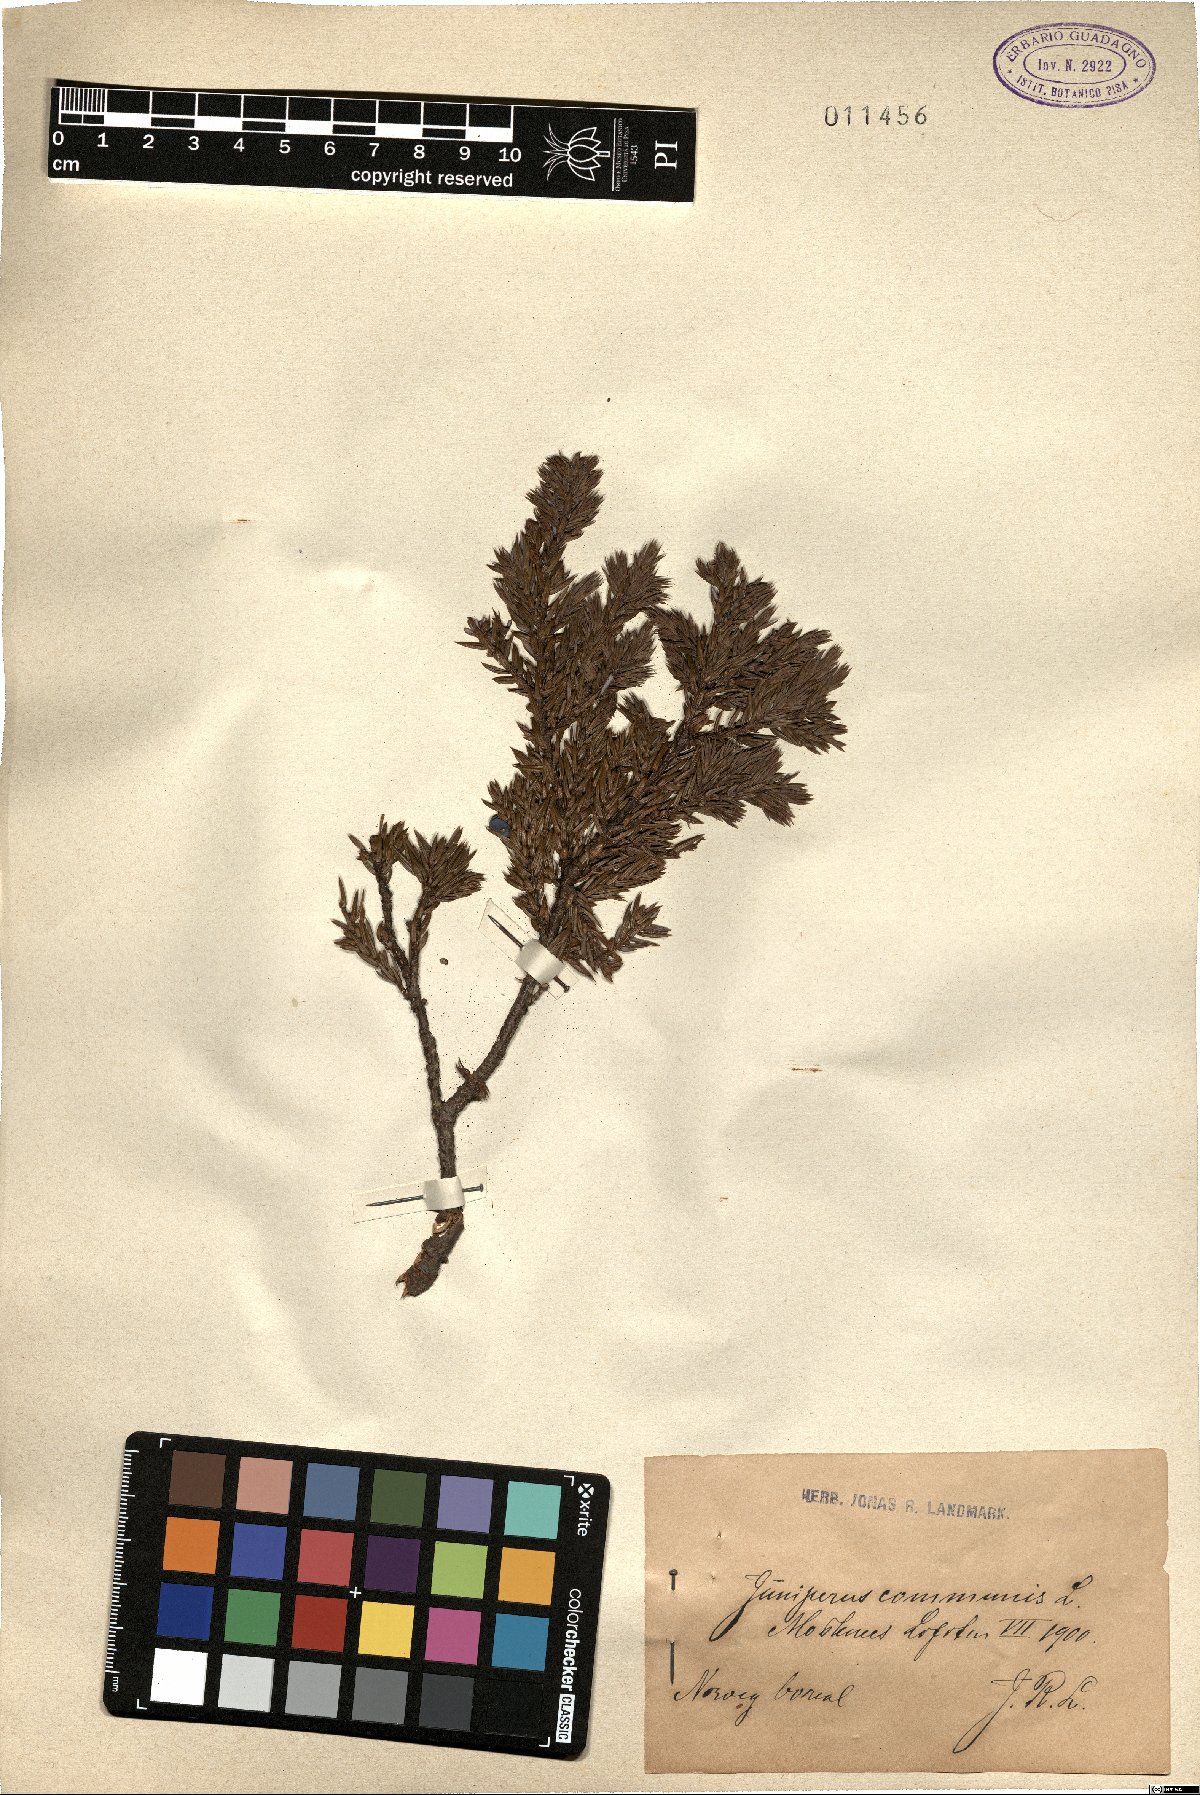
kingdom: Plantae
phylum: Tracheophyta
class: Pinopsida
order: Pinales
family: Cupressaceae
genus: Juniperus
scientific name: Juniperus communis
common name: Common juniper
